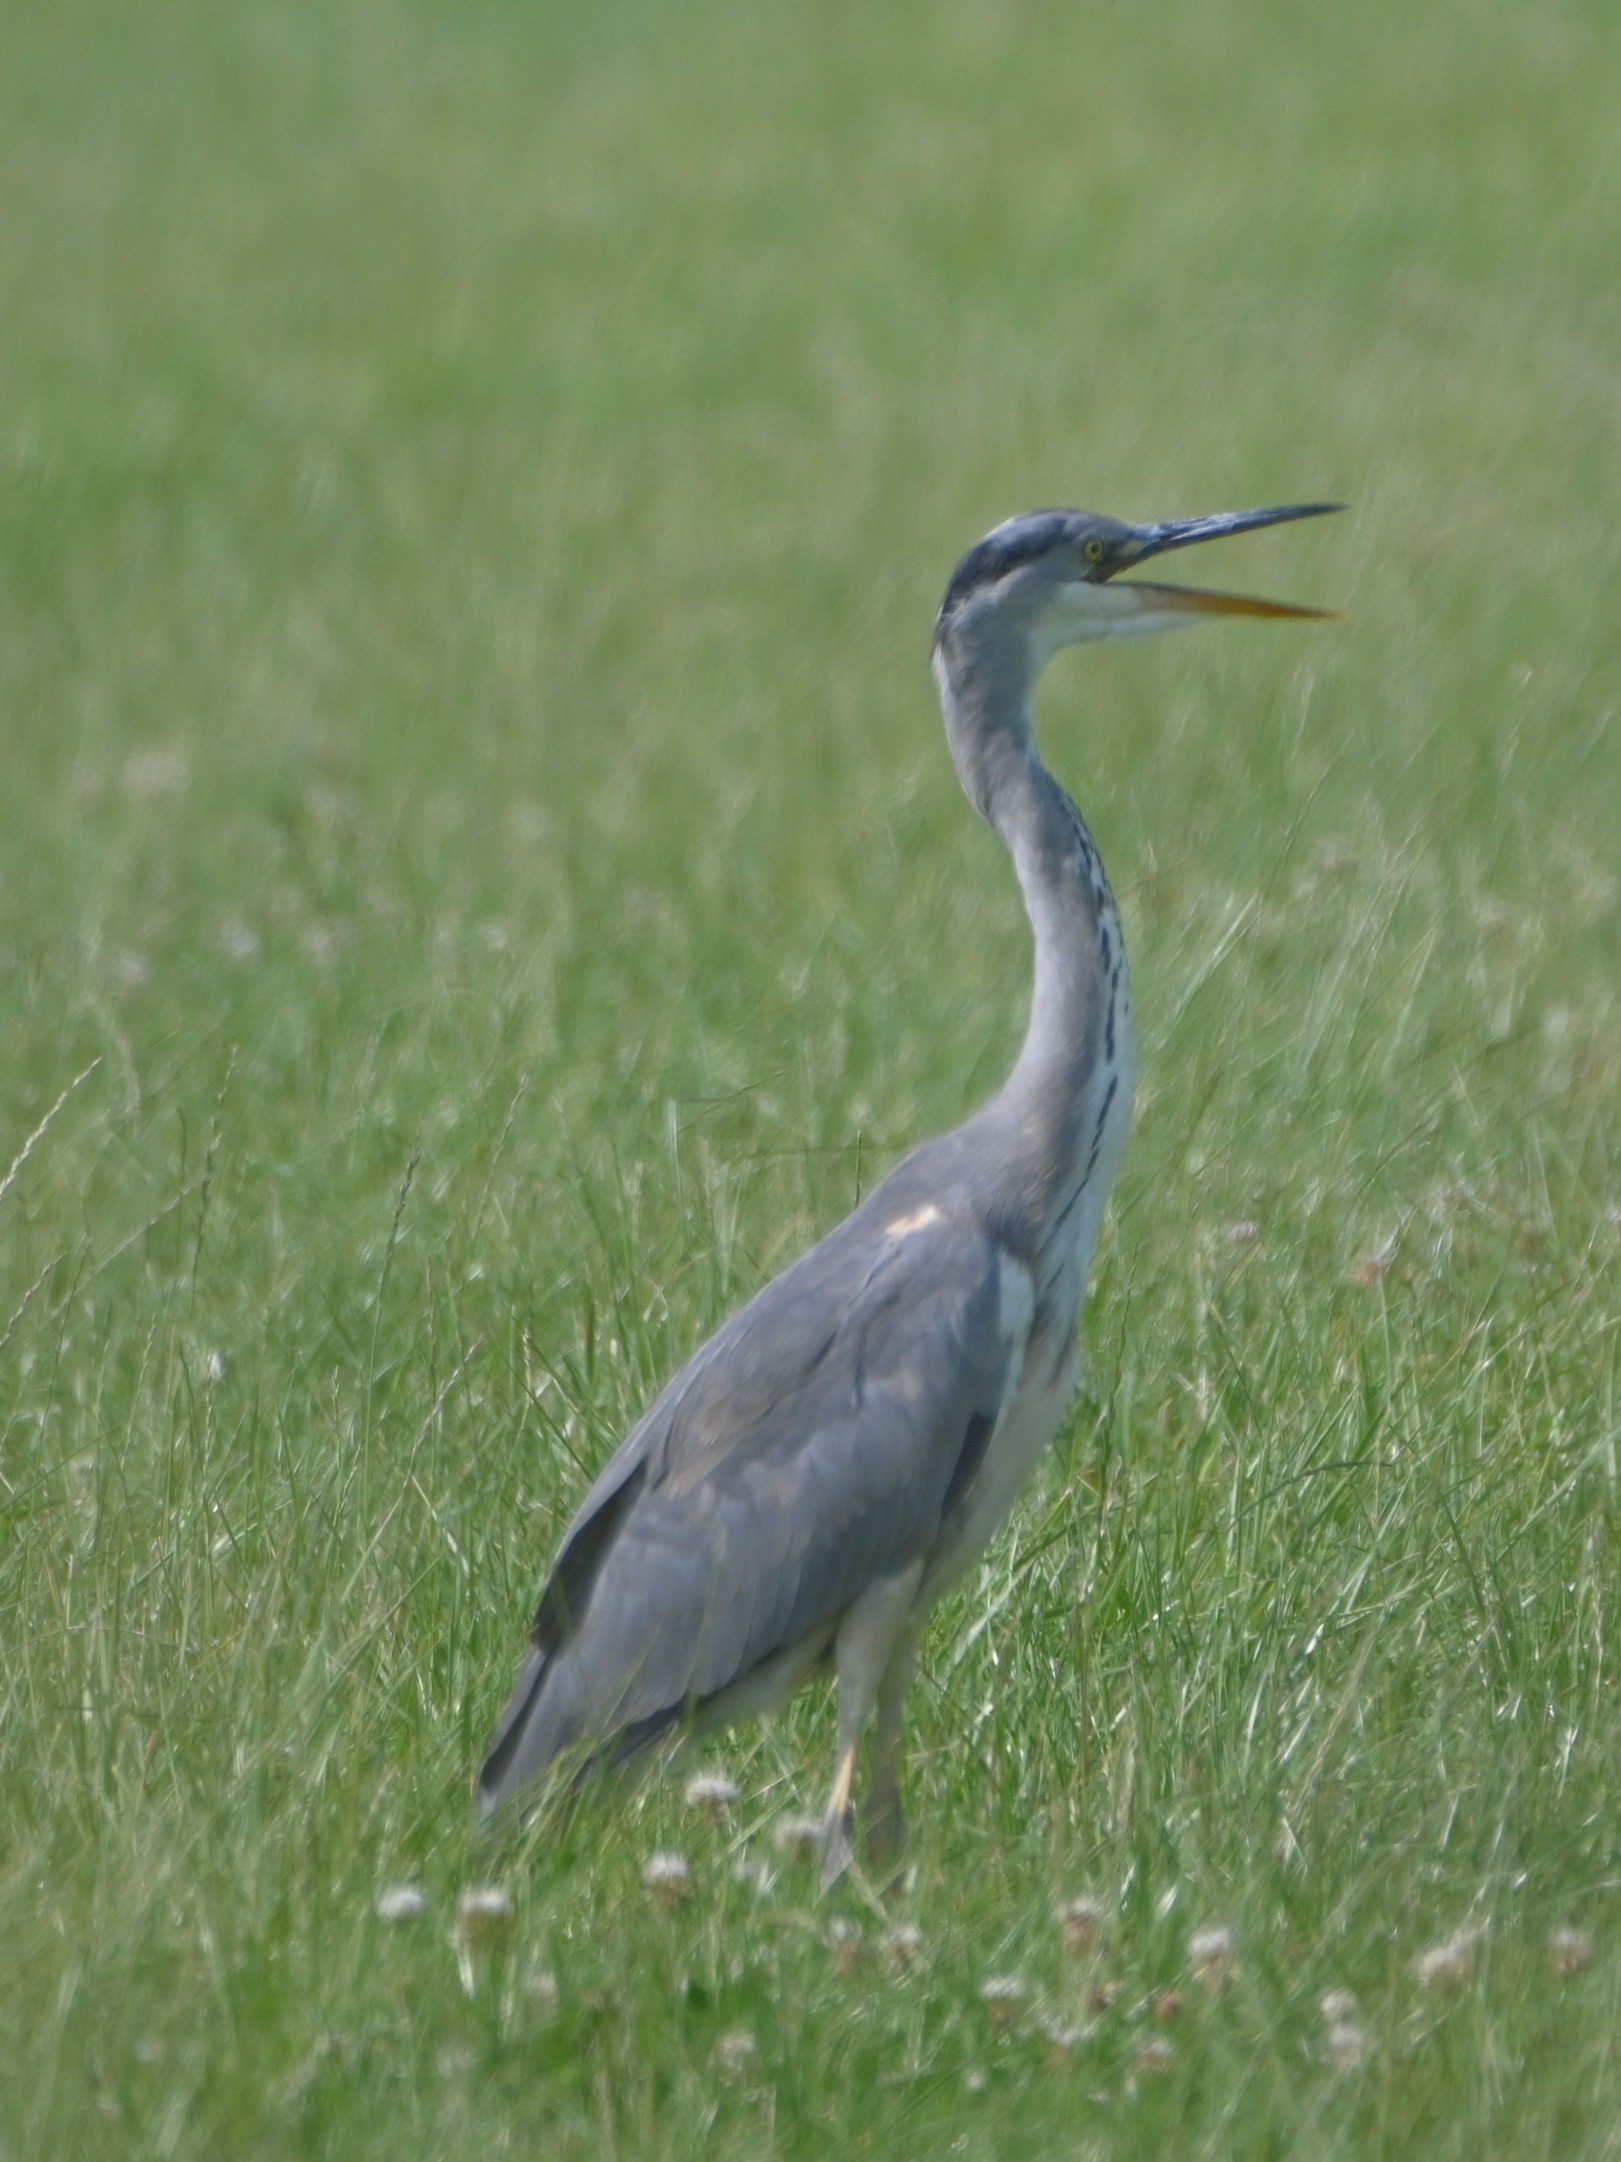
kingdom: Animalia
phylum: Chordata
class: Aves
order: Pelecaniformes
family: Ardeidae
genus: Ardea
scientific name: Ardea cinerea
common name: Fiskehejre
